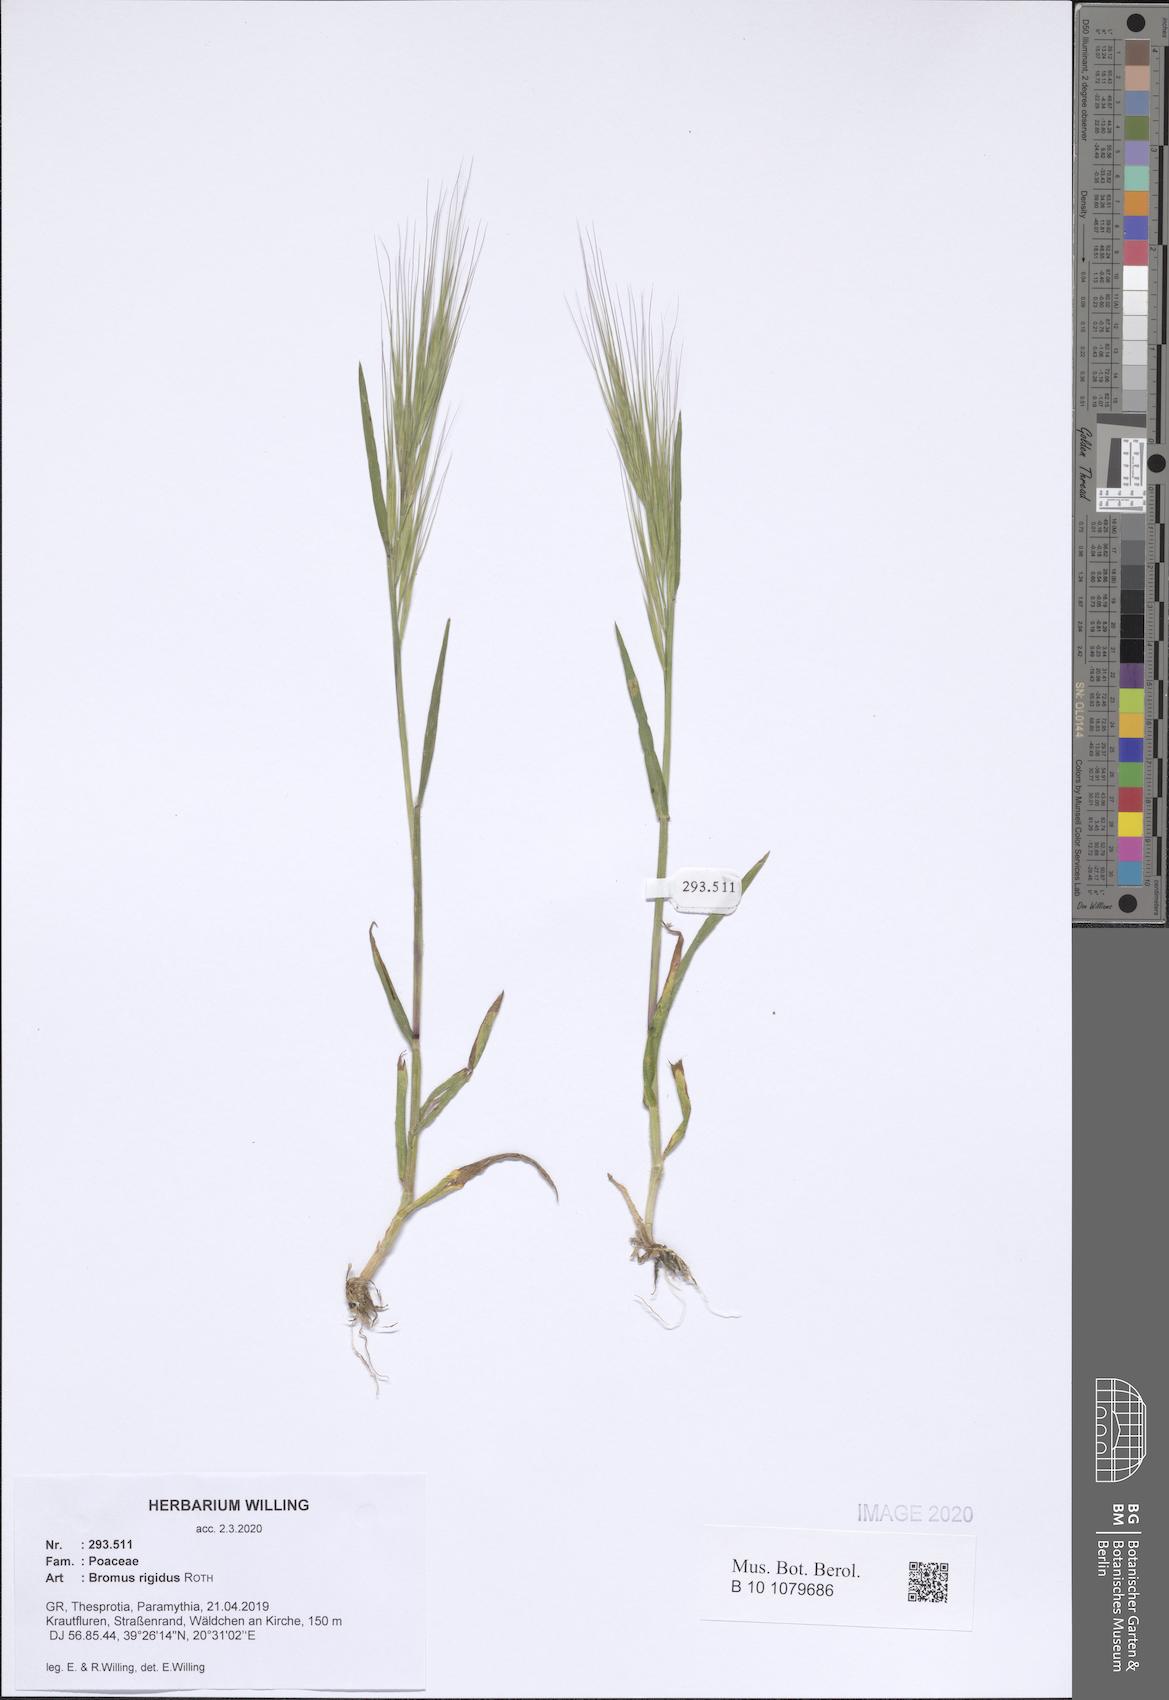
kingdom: Plantae
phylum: Tracheophyta
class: Liliopsida
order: Poales
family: Poaceae
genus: Bromus
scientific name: Bromus rigidus
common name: Ripgut brome
